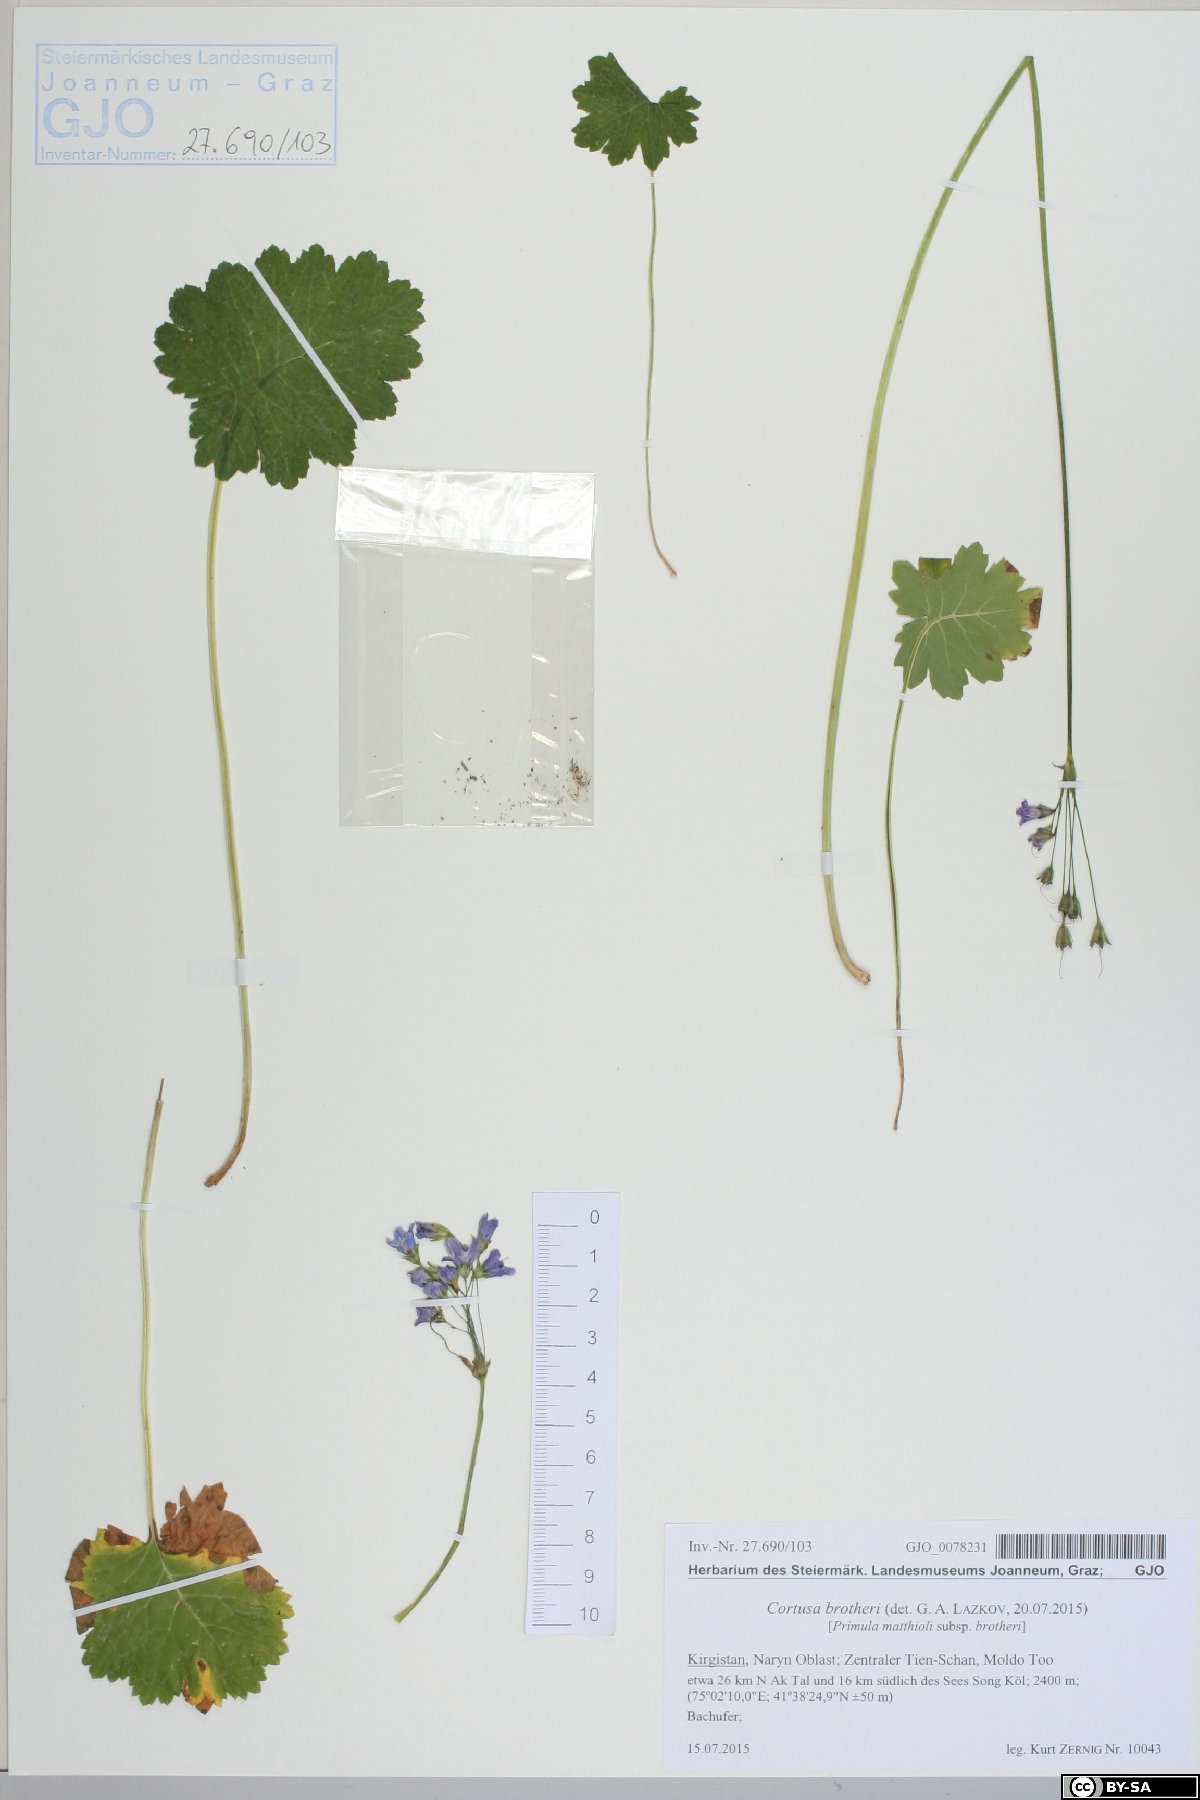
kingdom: Plantae
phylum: Tracheophyta
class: Magnoliopsida
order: Ericales
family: Primulaceae
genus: Primula
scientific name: Primula Cortusa brotheri
